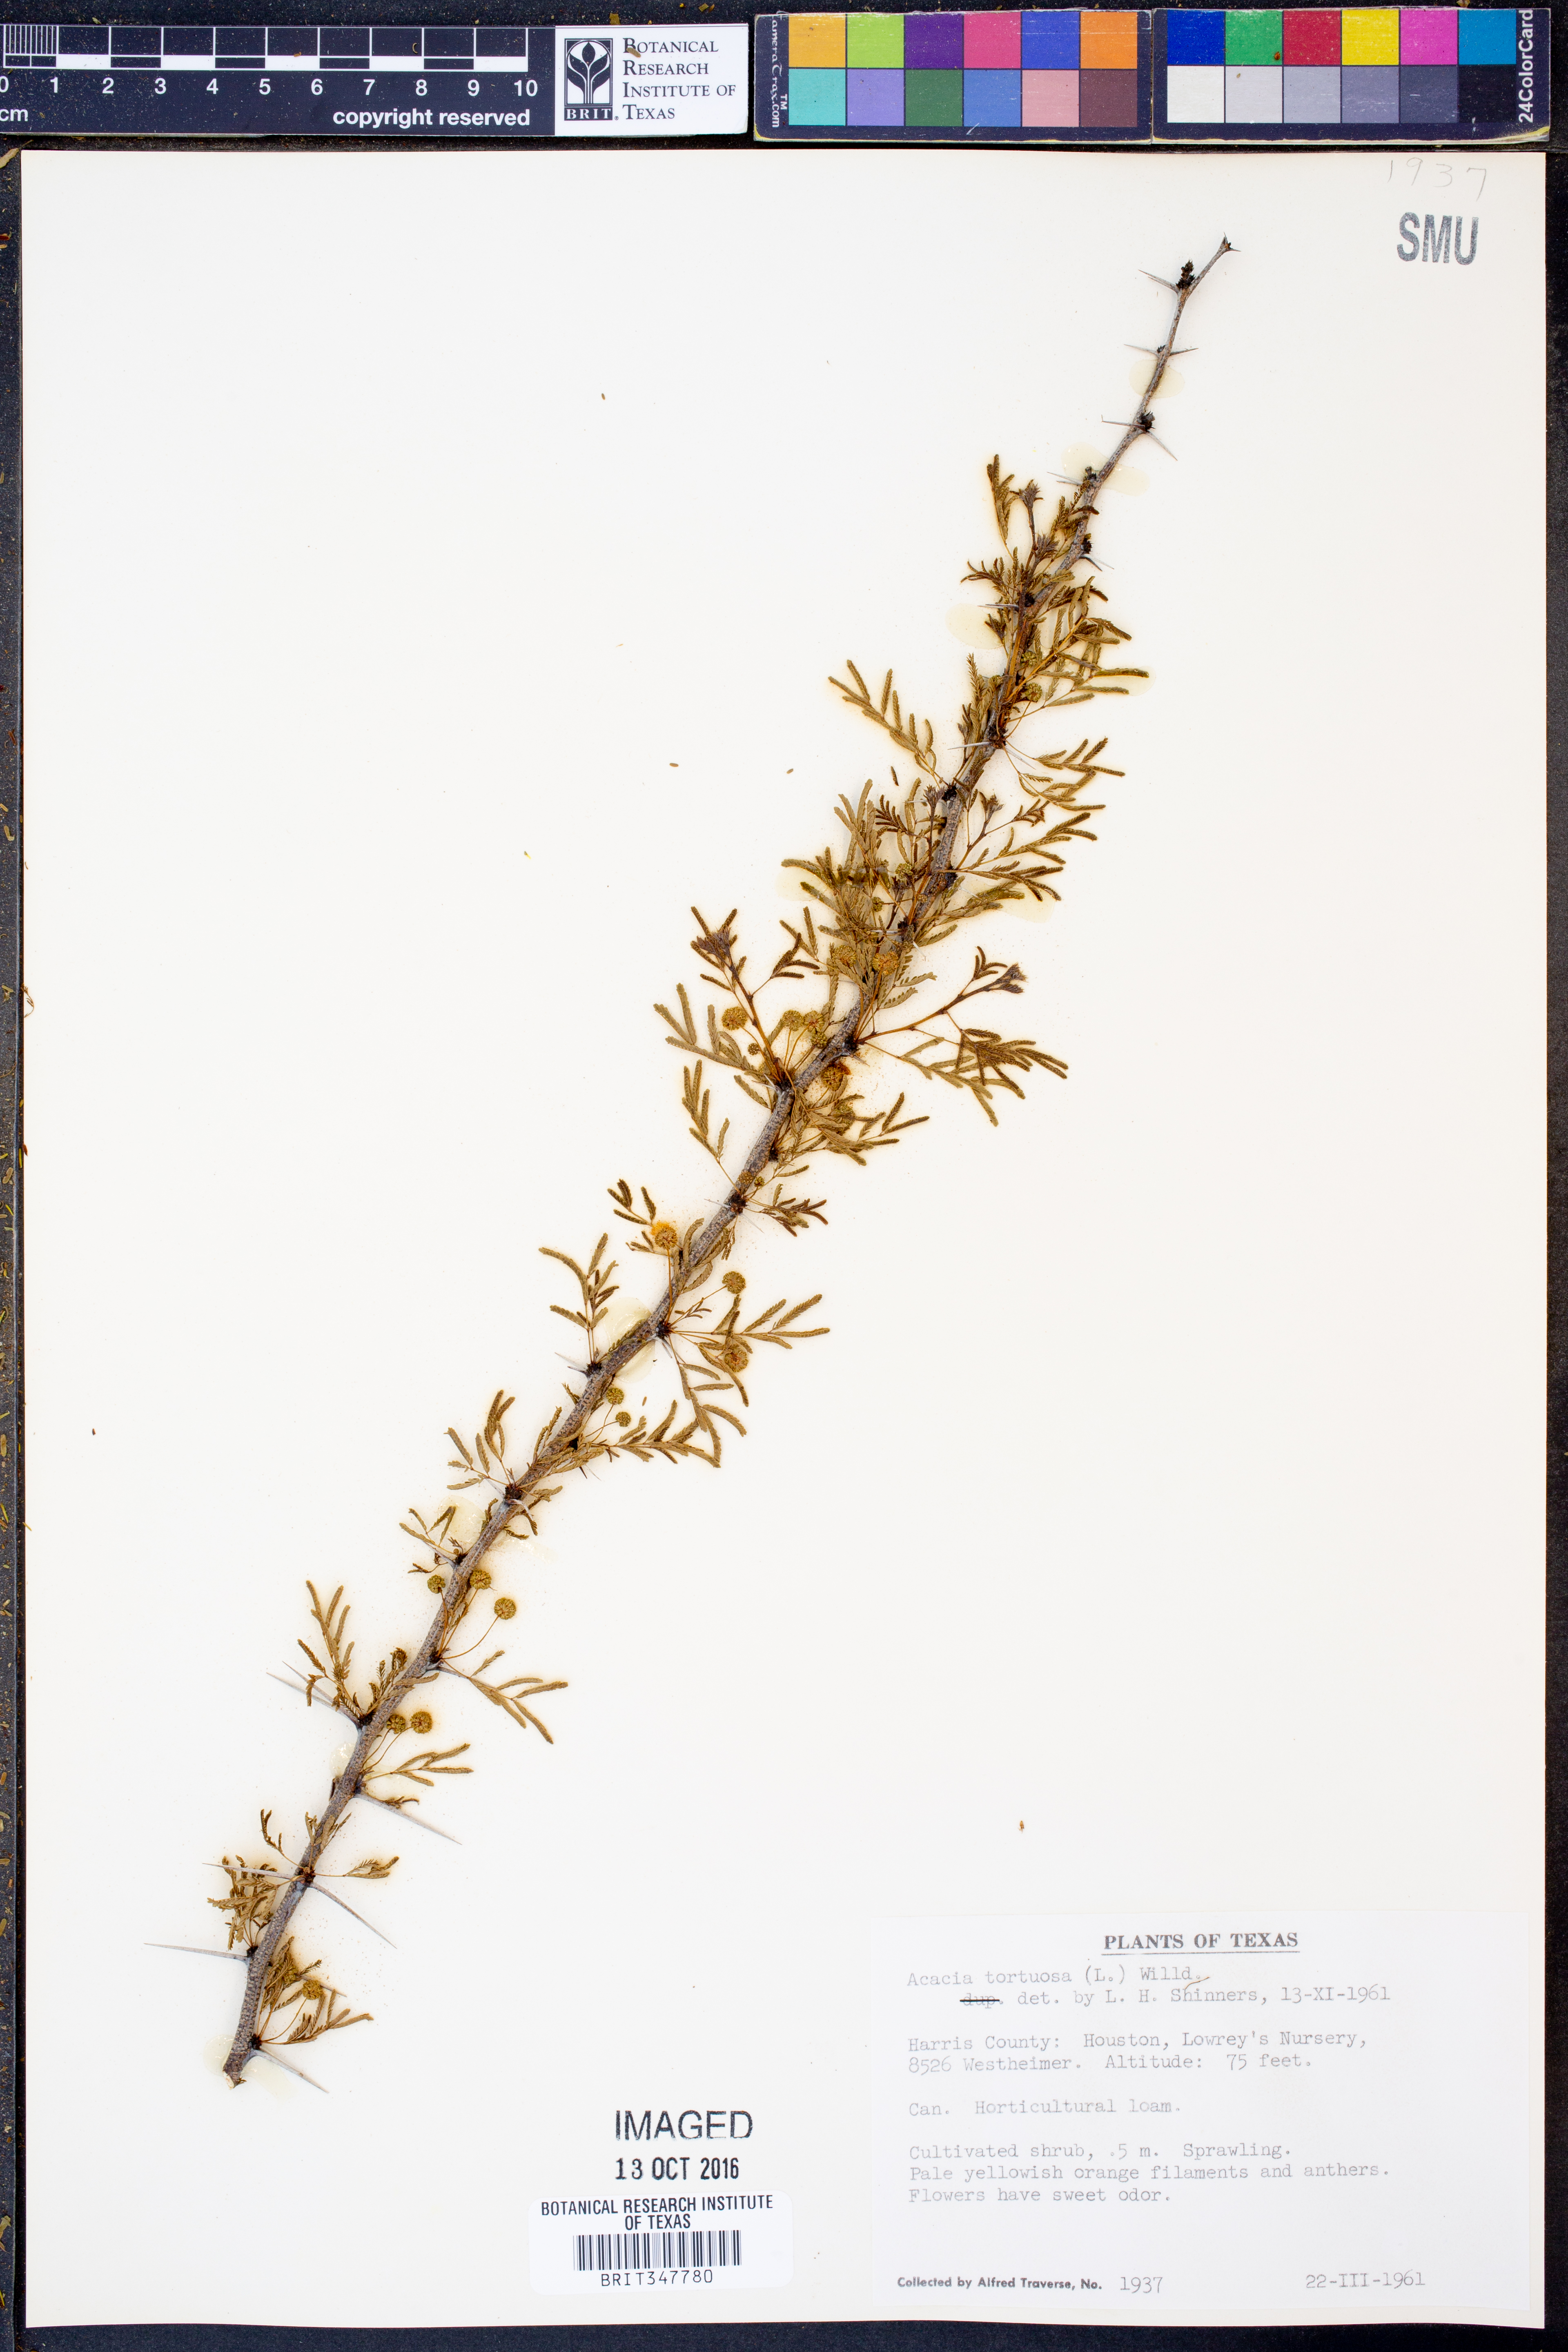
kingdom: Plantae
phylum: Tracheophyta
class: Magnoliopsida
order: Fabales
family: Fabaceae
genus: Vachellia
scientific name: Vachellia tortuosa
